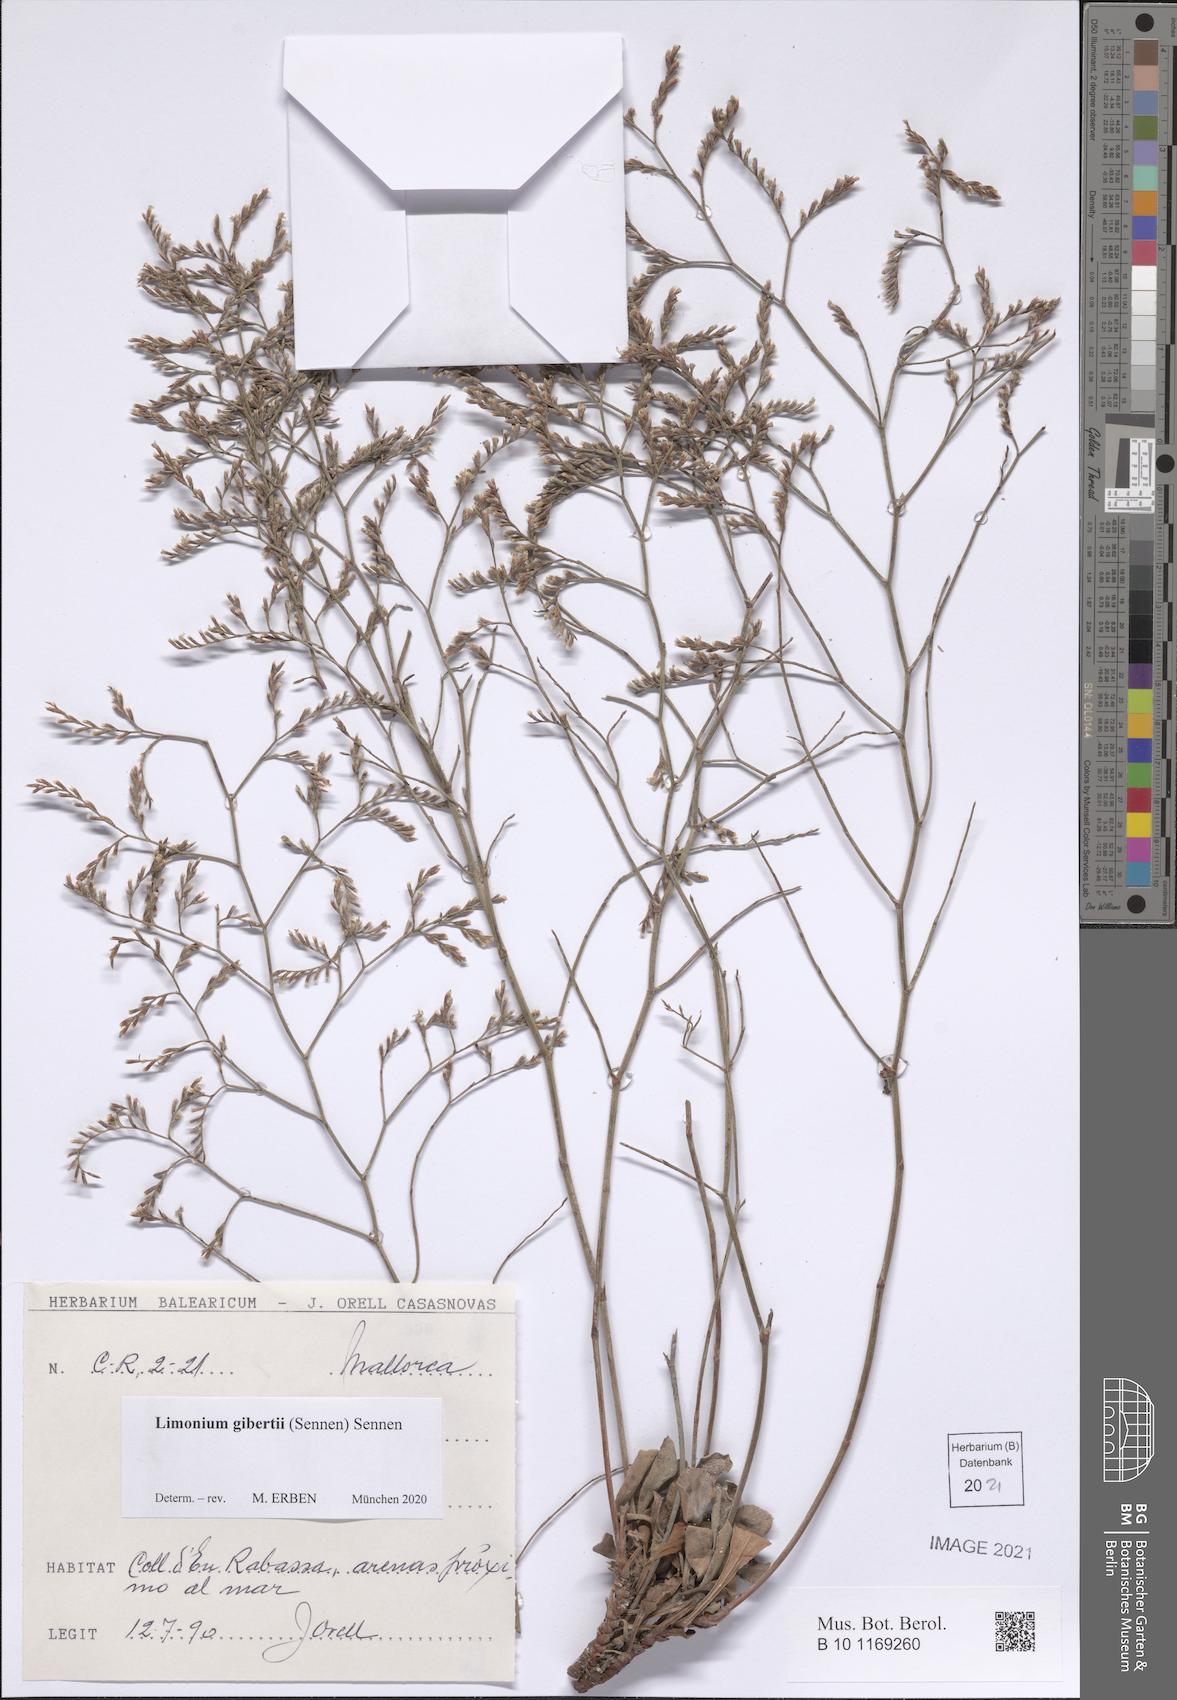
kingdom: Plantae
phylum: Tracheophyta
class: Magnoliopsida
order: Caryophyllales
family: Plumbaginaceae
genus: Limonium
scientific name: Limonium gibertii
